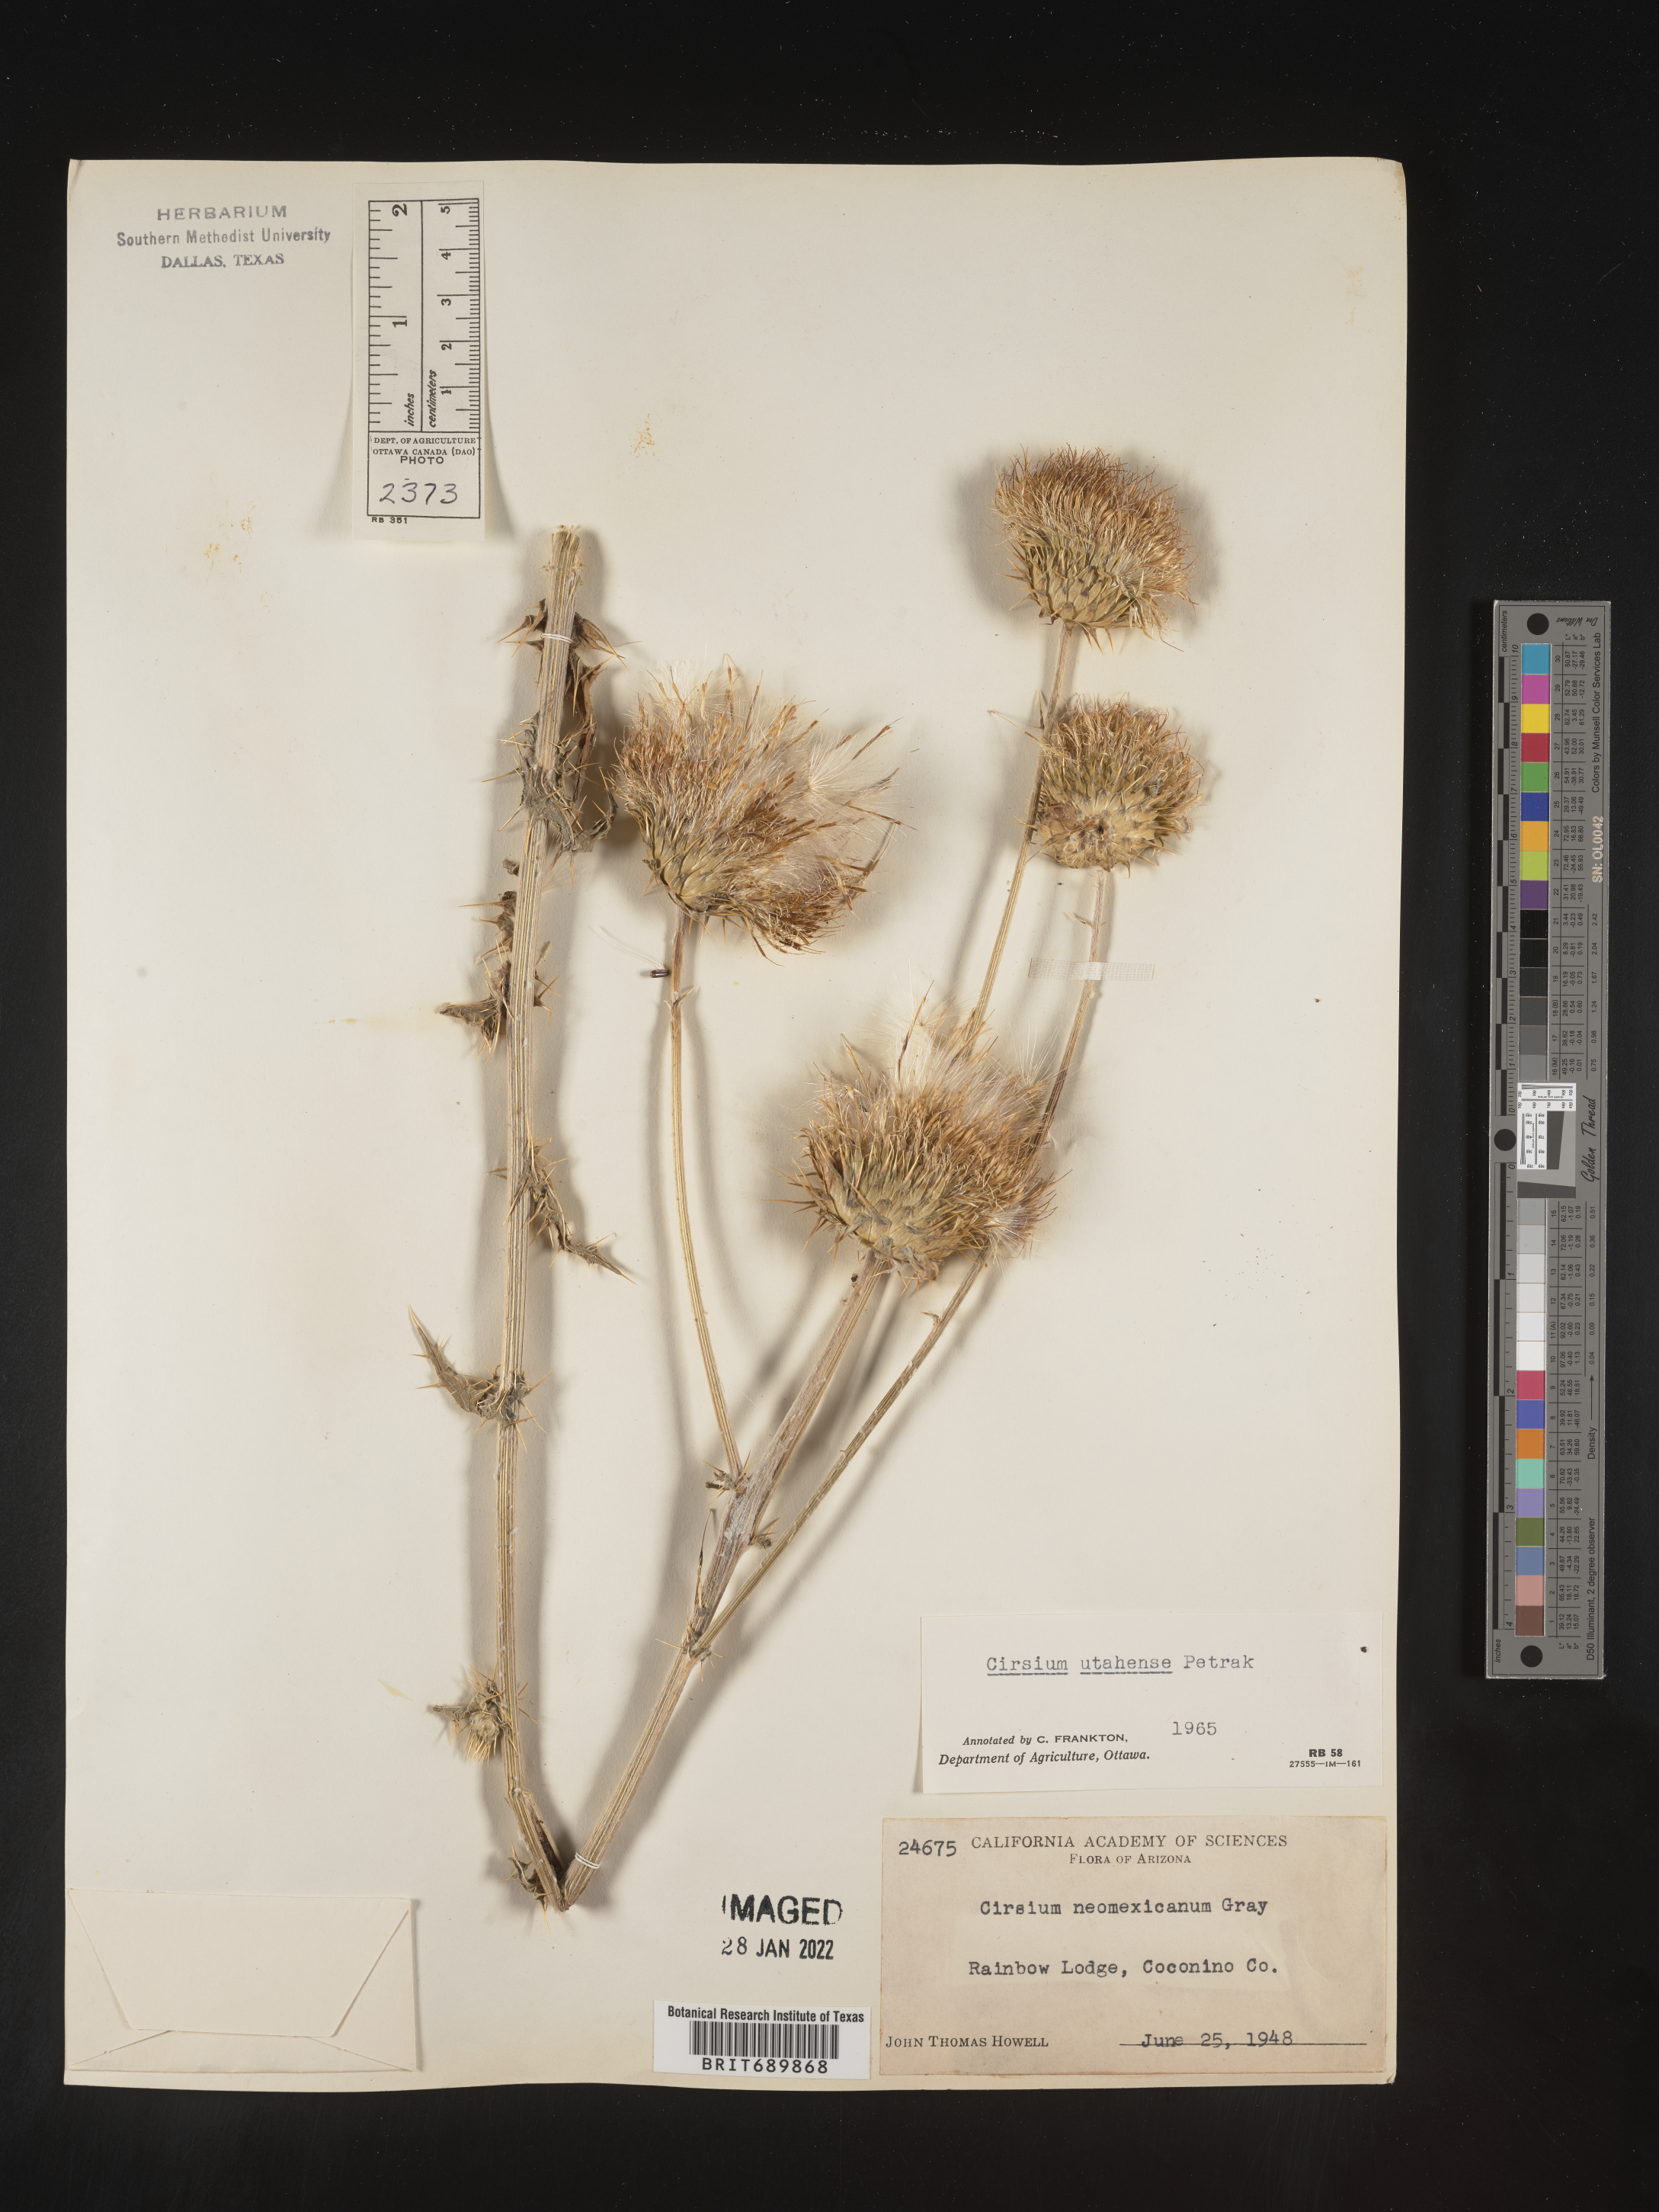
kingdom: Plantae
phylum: Tracheophyta
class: Magnoliopsida
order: Asterales
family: Asteraceae
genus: Cirsium
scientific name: Cirsium
